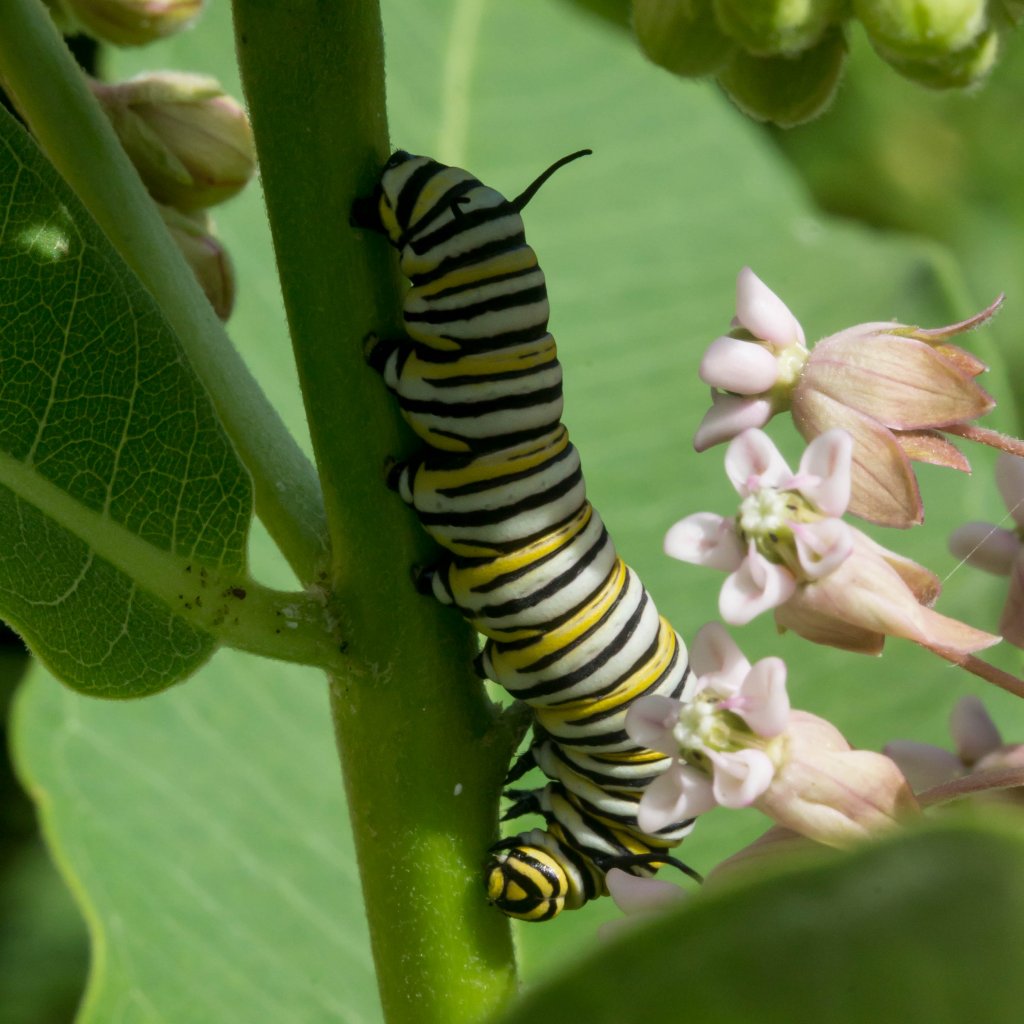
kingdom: Animalia
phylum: Arthropoda
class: Insecta
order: Lepidoptera
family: Nymphalidae
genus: Danaus
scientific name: Danaus plexippus
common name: Monarch
